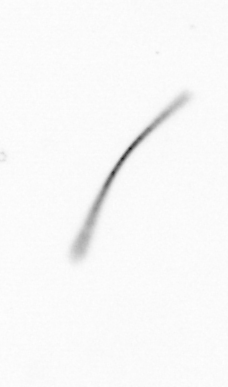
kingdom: Chromista
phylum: Ochrophyta
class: Bacillariophyceae
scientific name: Bacillariophyceae
